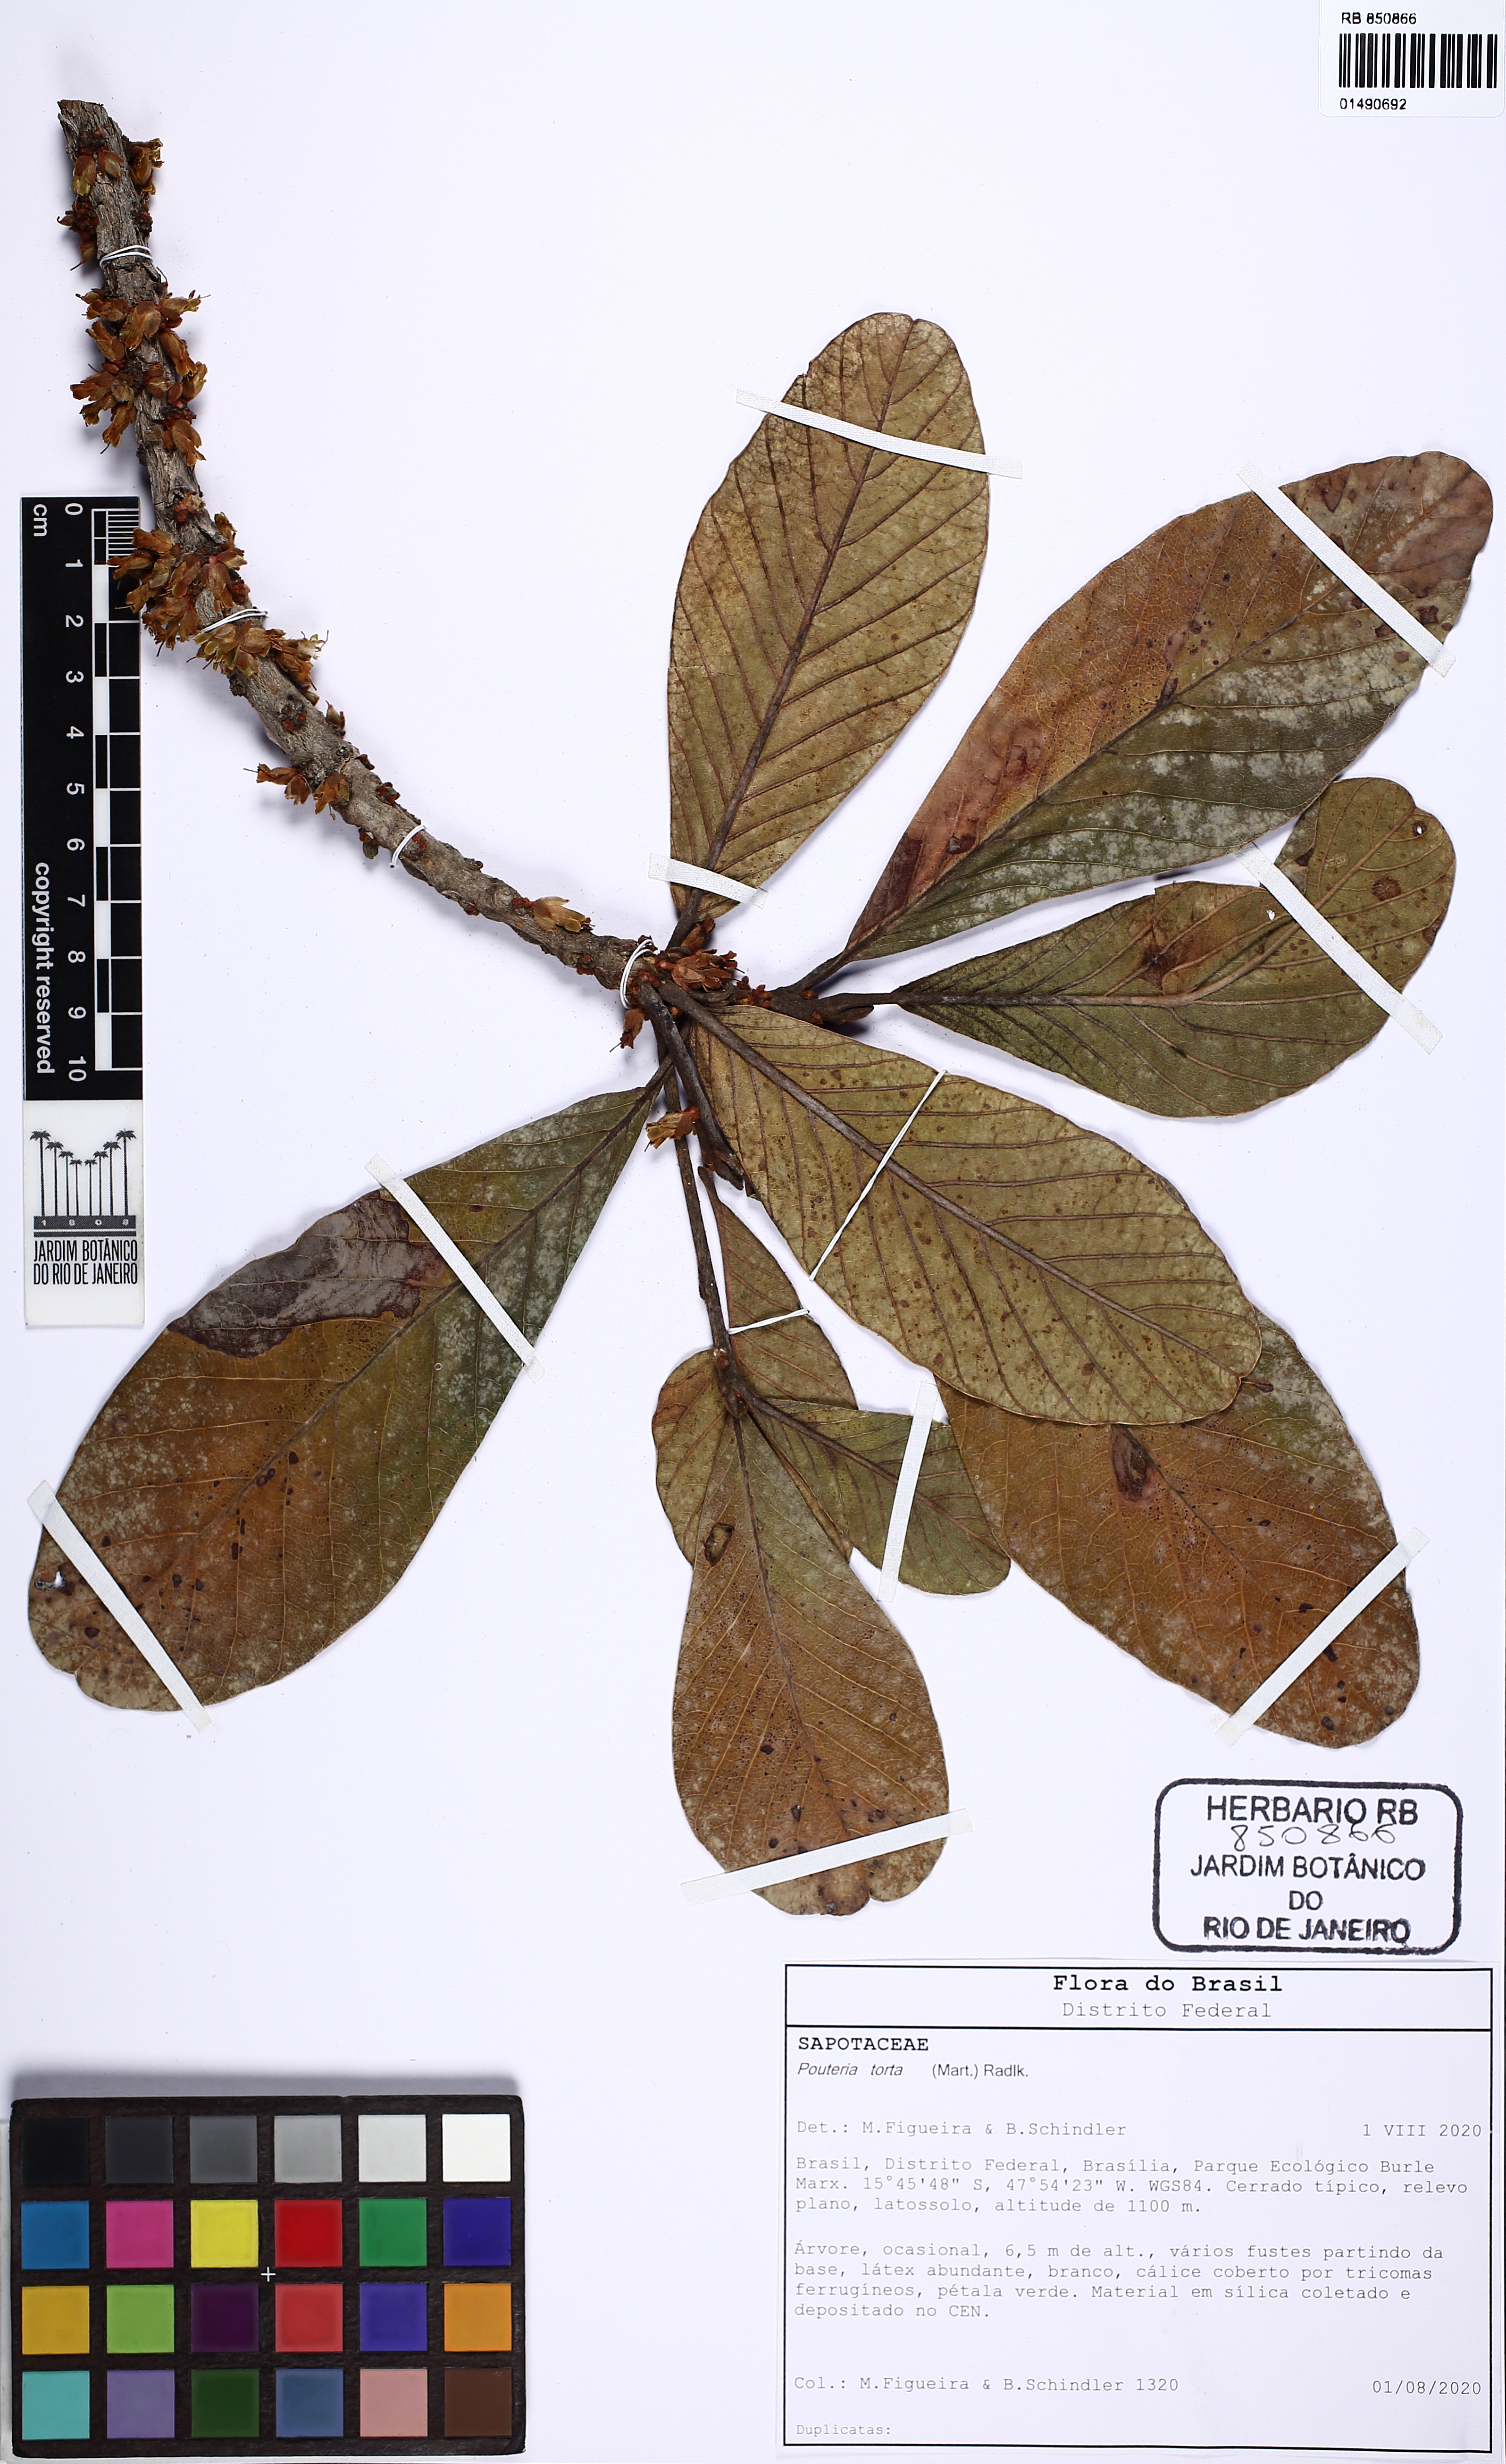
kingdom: Plantae
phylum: Tracheophyta
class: Magnoliopsida
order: Ericales
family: Sapotaceae
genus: Pouteria
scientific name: Pouteria torta
